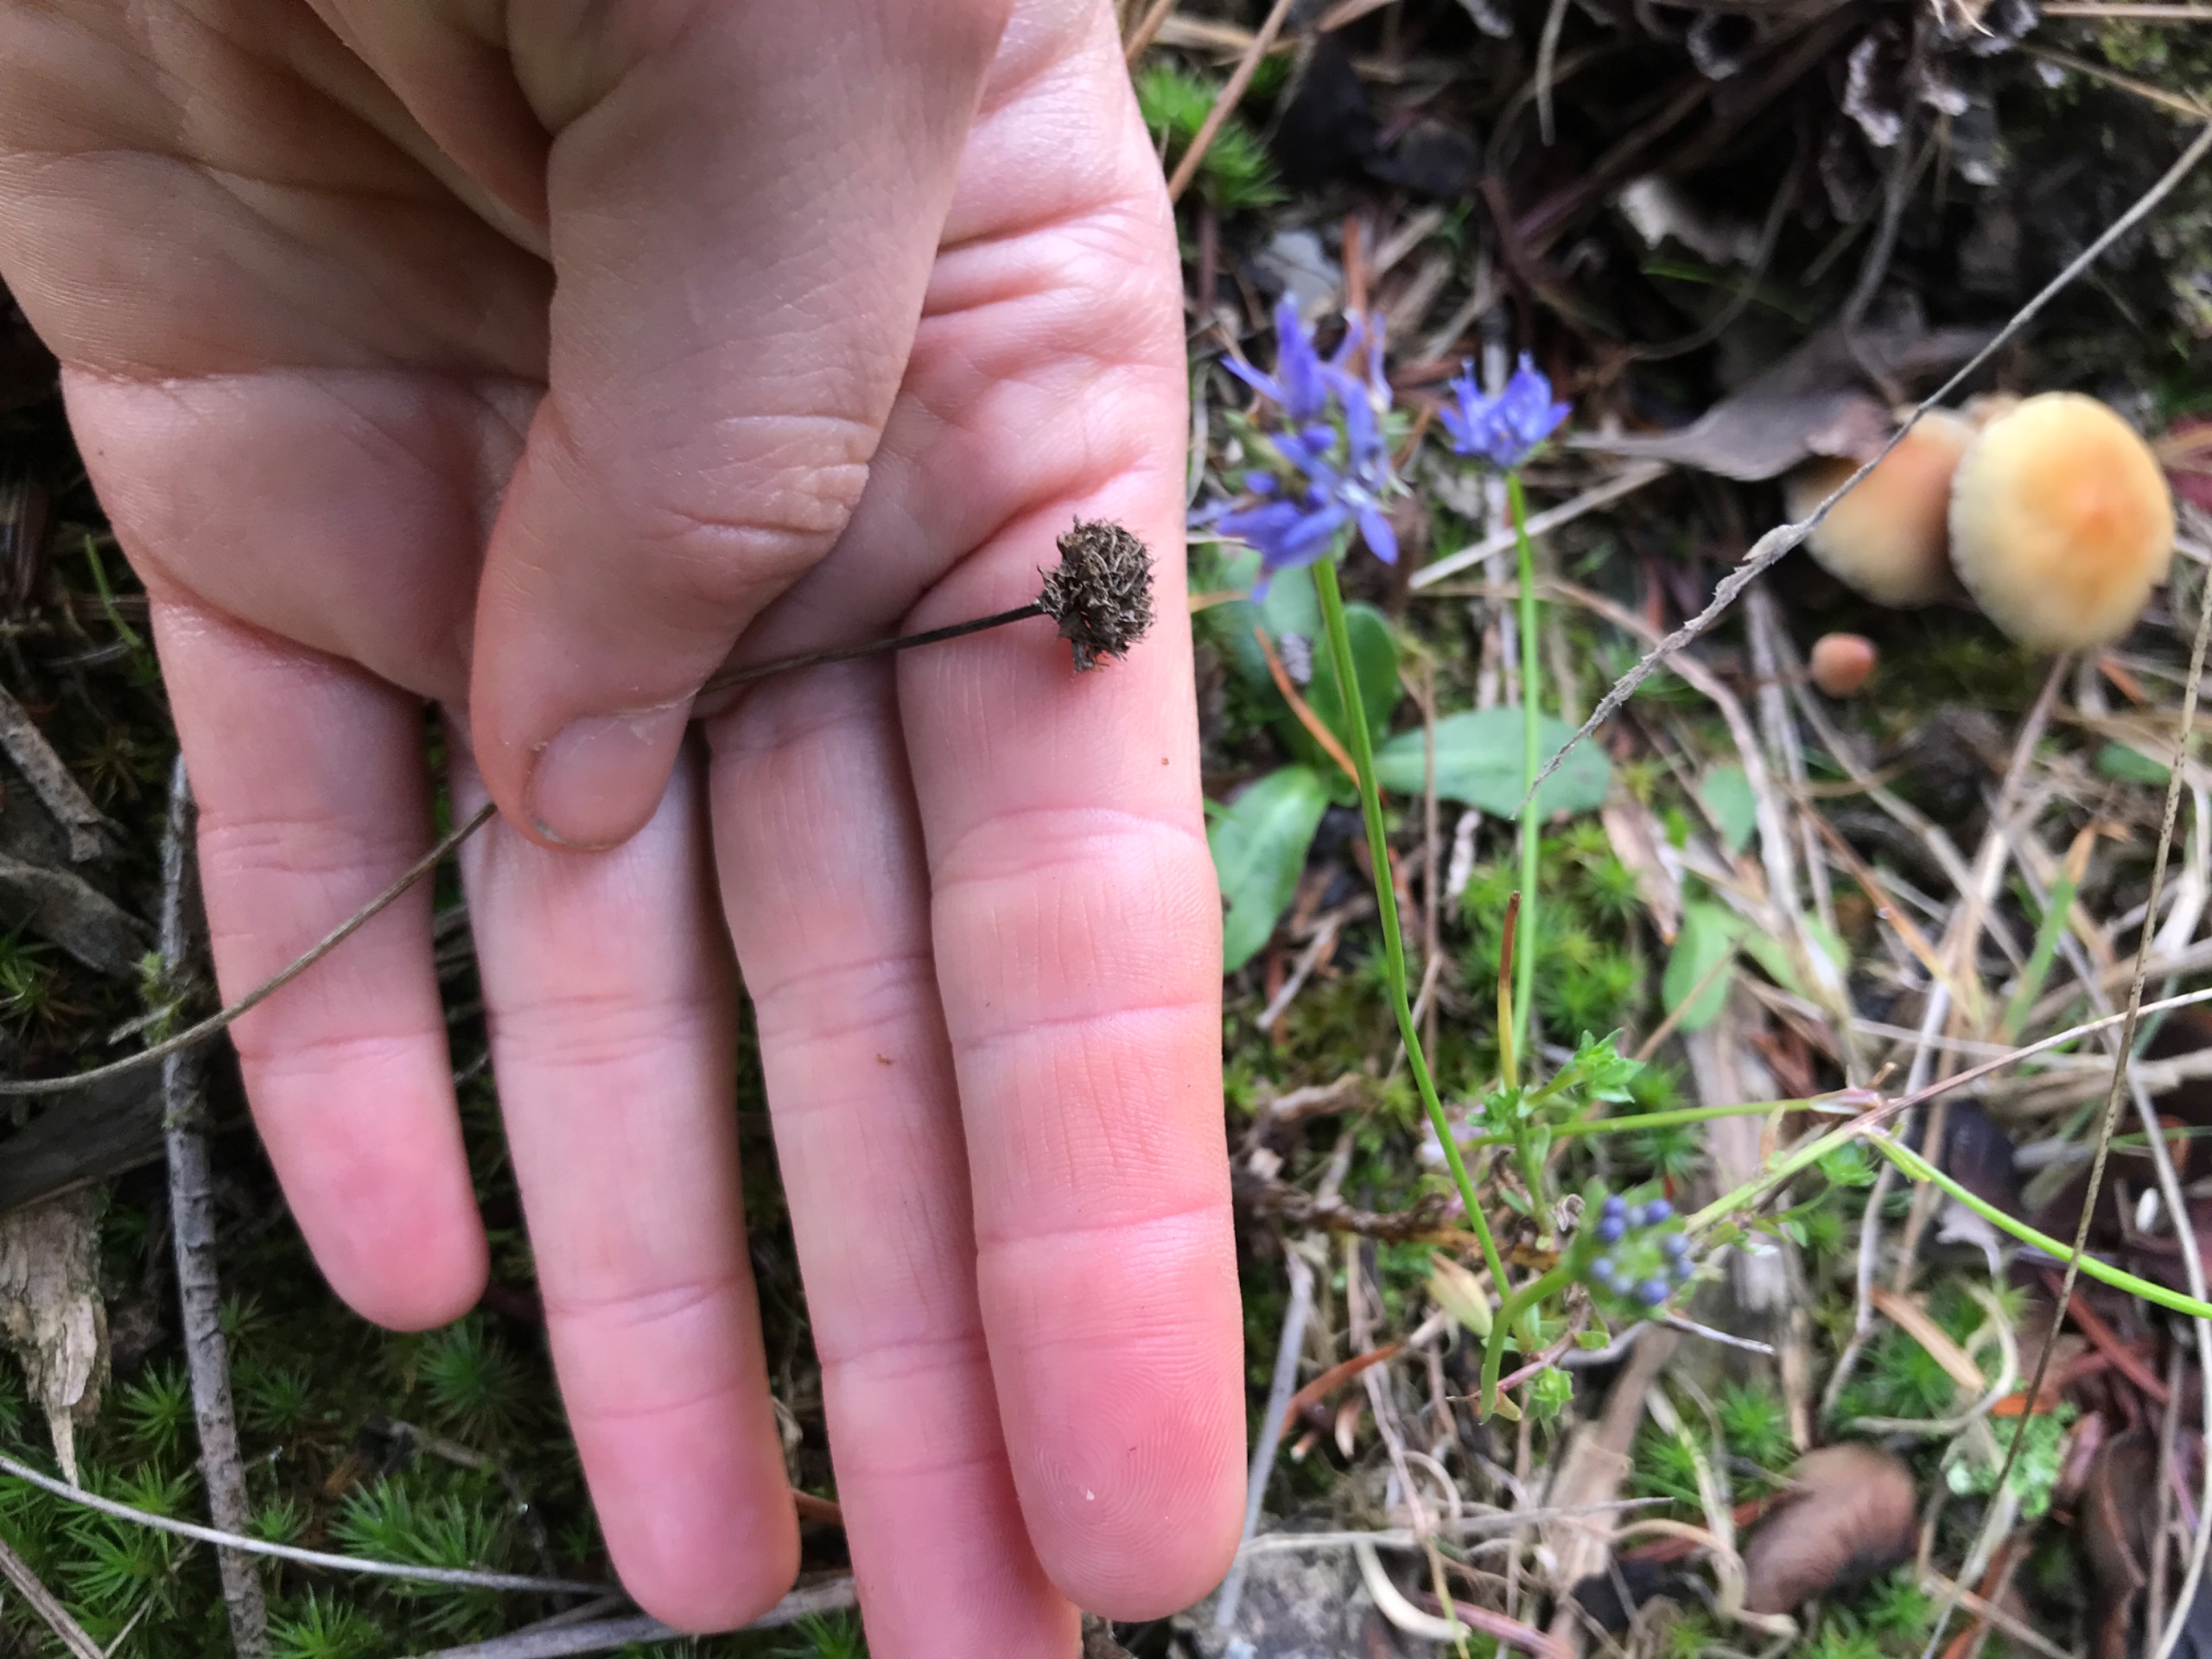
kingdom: Plantae
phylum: Tracheophyta
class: Magnoliopsida
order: Asterales
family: Campanulaceae
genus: Jasione
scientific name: Jasione montana
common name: Blåmunke
